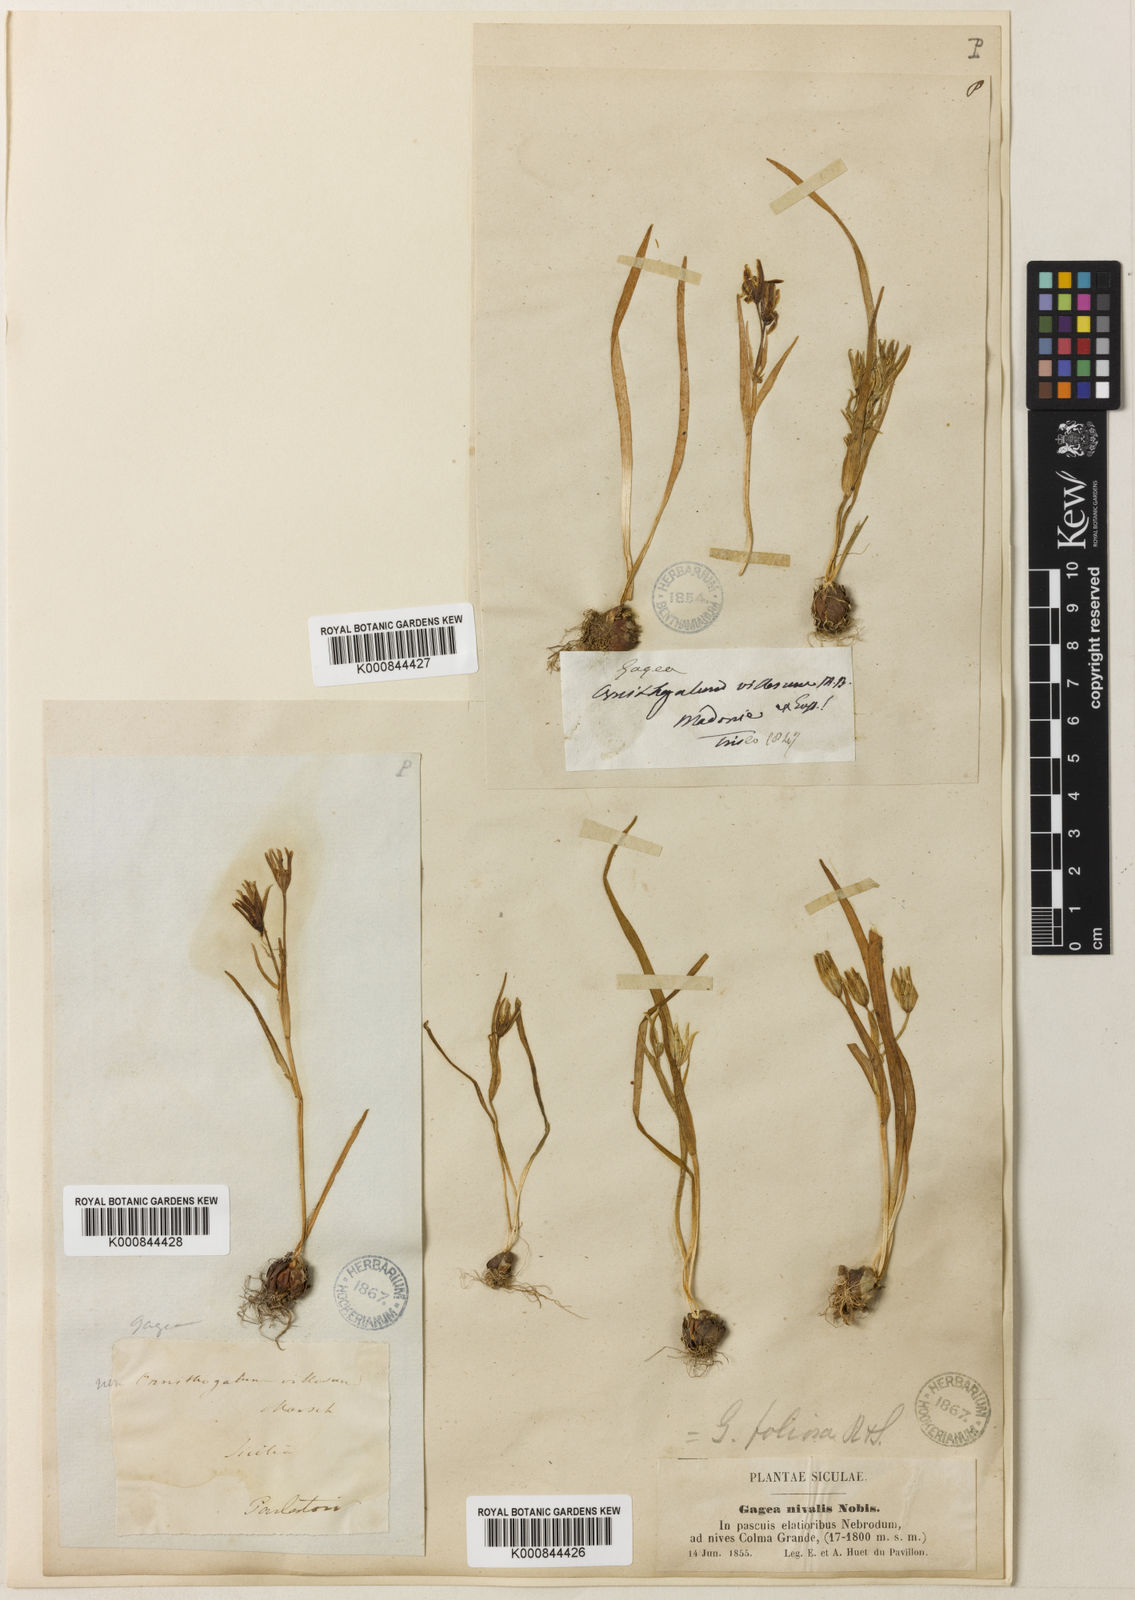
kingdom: Plantae
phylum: Tracheophyta
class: Liliopsida
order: Liliales
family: Liliaceae
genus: Gagea
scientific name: Gagea foliosa
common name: Leafy gagea
